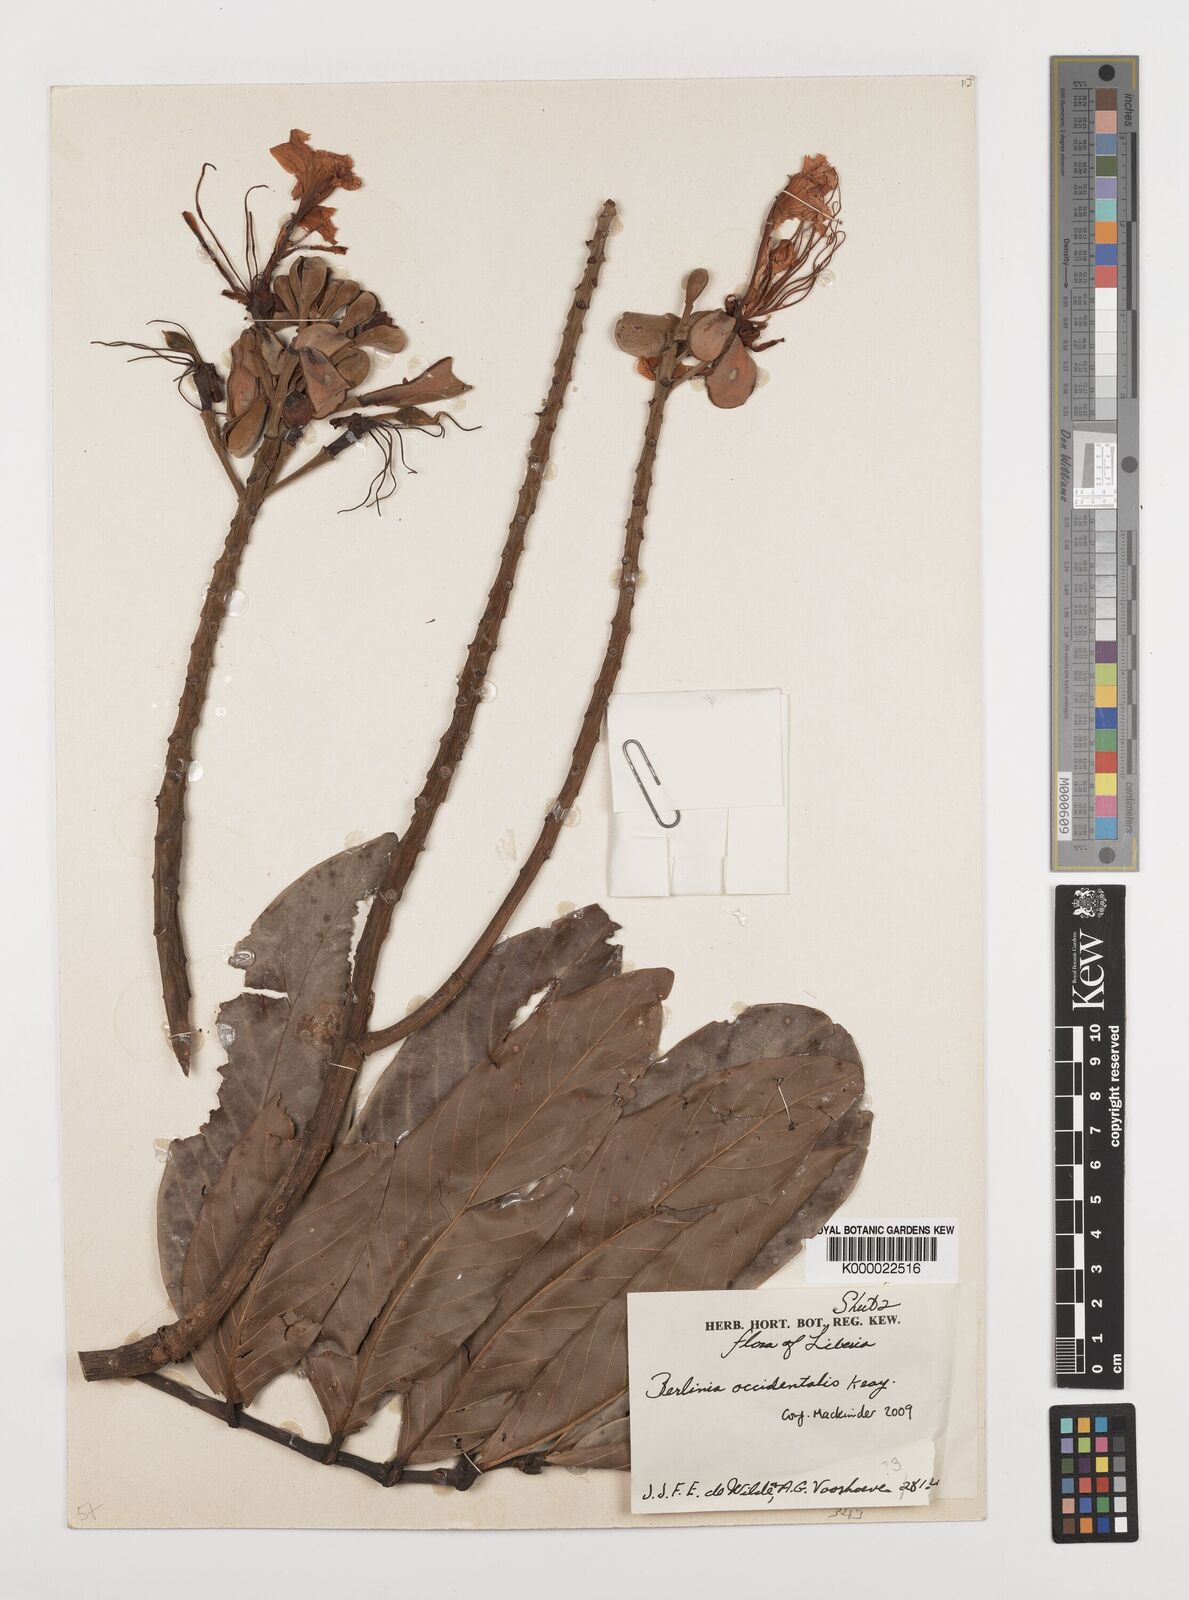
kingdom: Plantae
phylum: Tracheophyta
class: Magnoliopsida
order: Fabales
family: Fabaceae
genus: Berlinia
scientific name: Berlinia occidentalis
